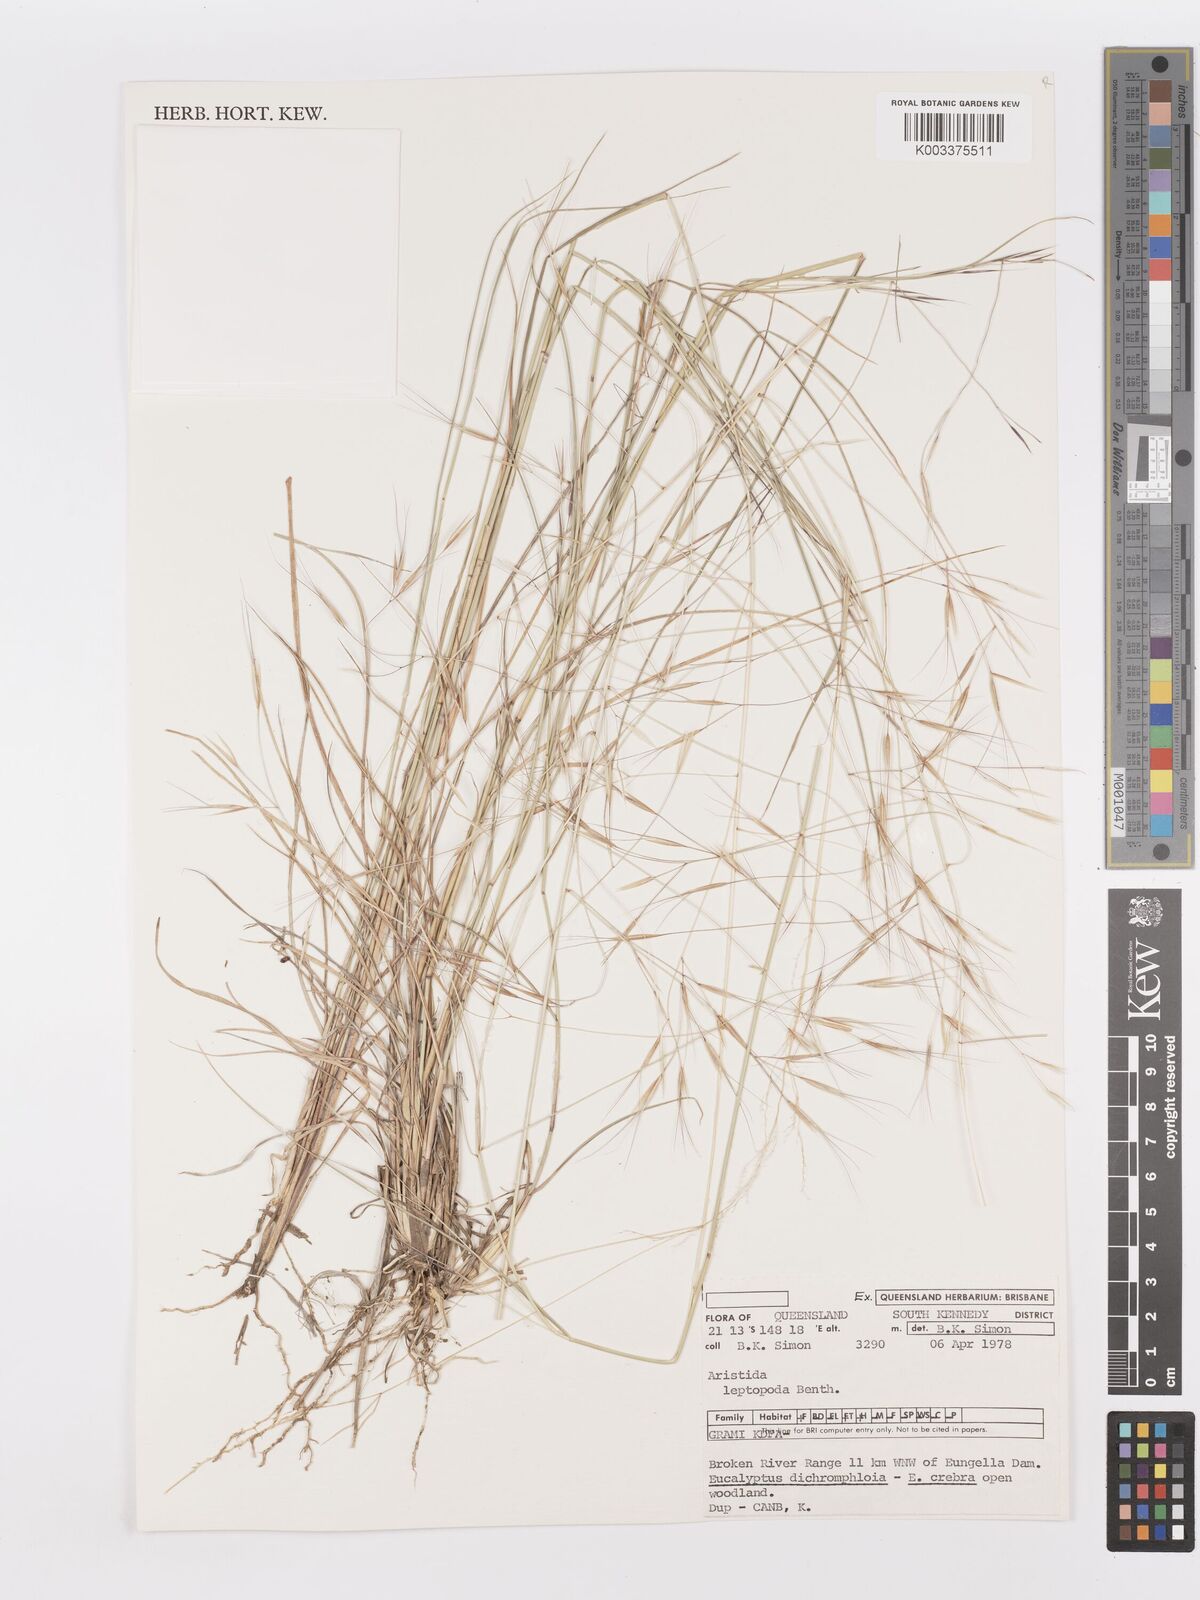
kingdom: Plantae
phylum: Tracheophyta
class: Liliopsida
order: Poales
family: Poaceae
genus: Aristida
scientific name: Aristida leptopoda
